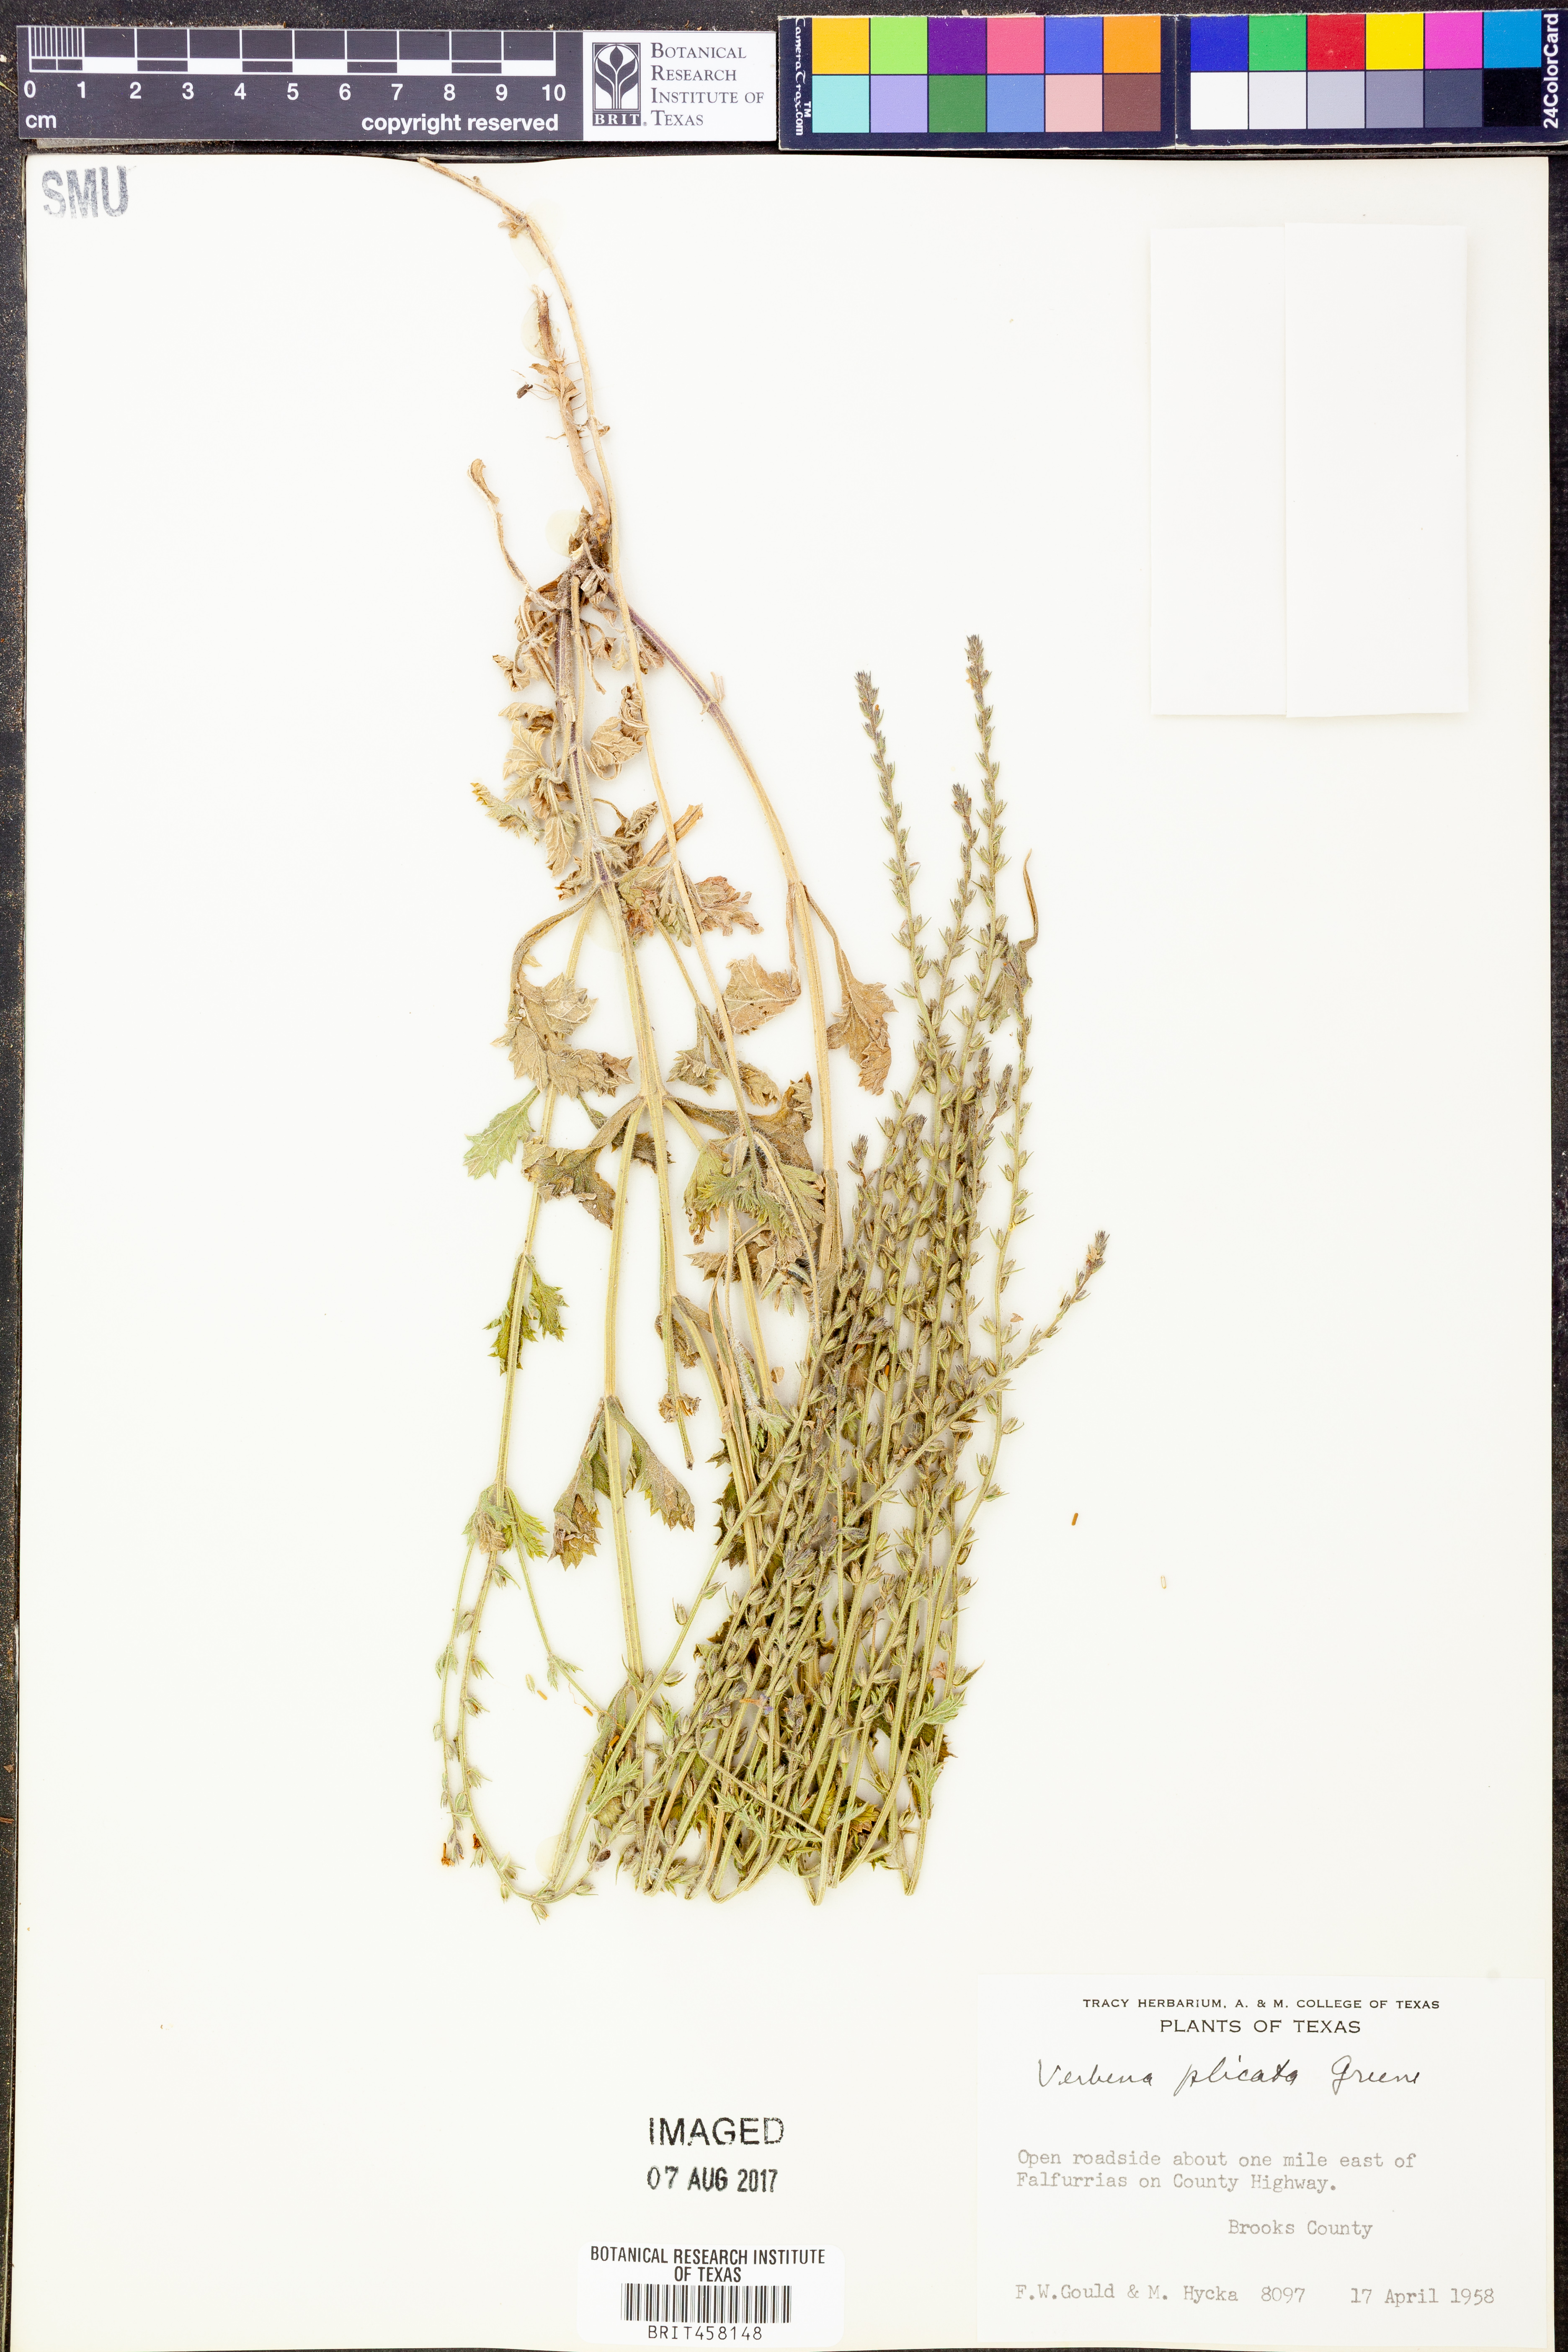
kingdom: Plantae
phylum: Tracheophyta
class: Magnoliopsida
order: Lamiales
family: Verbenaceae
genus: Verbena
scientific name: Verbena plicata
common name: Fan-leaf vervain
